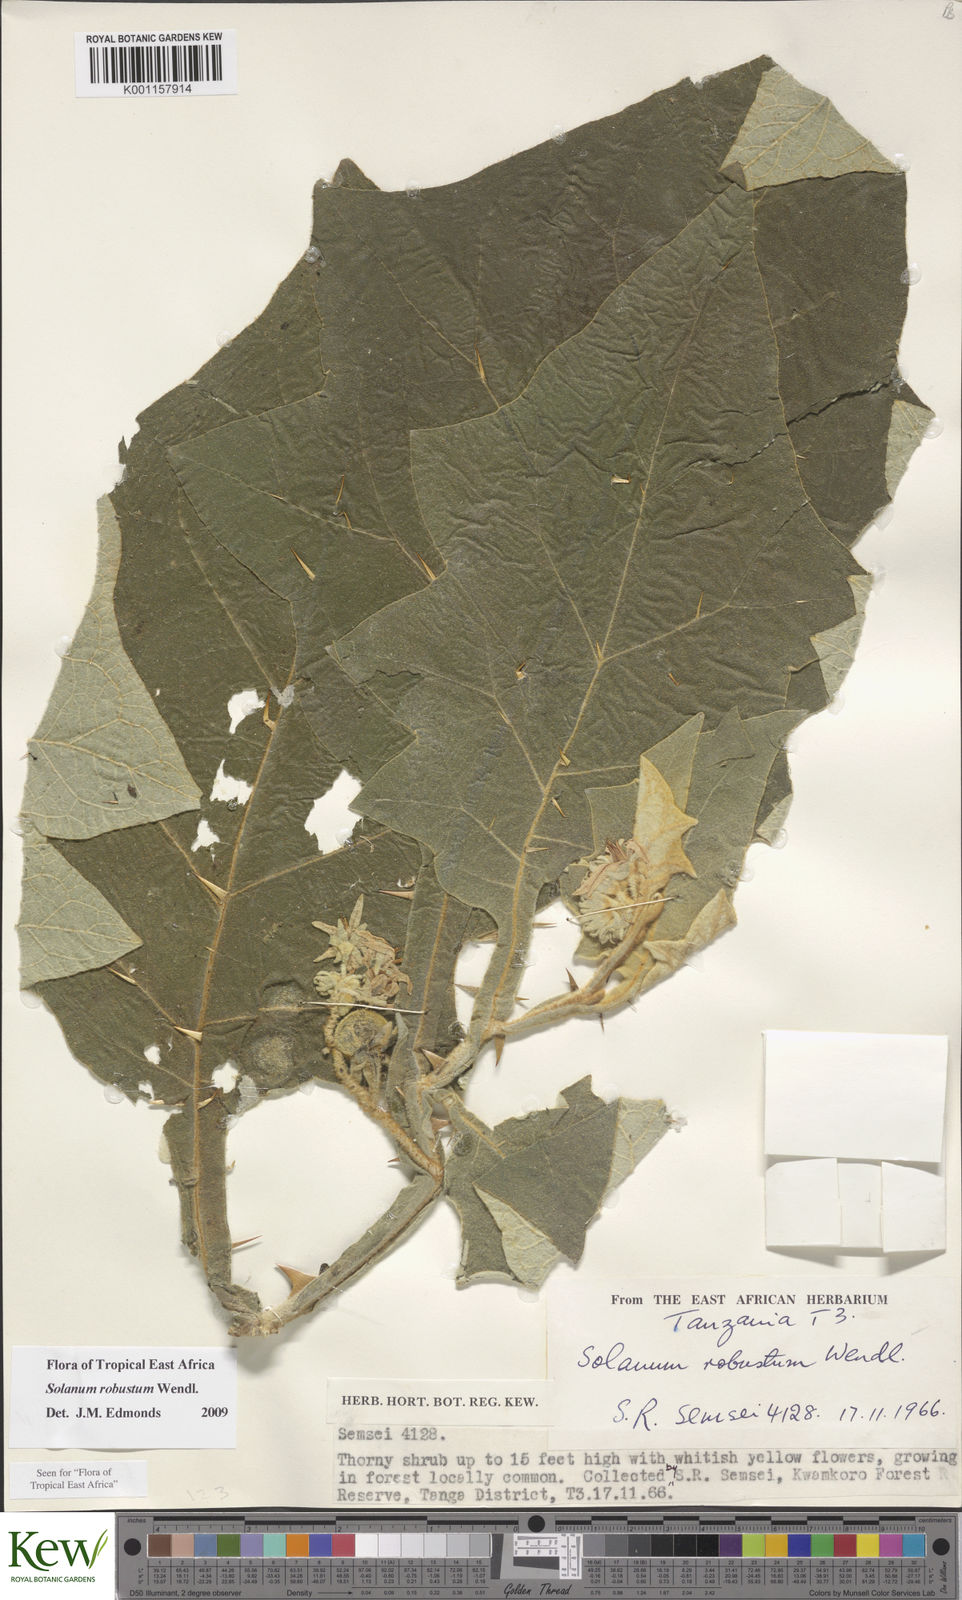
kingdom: Plantae
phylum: Tracheophyta
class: Magnoliopsida
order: Solanales
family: Solanaceae
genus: Solanum
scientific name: Solanum robustum
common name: Shrubby nightshade
